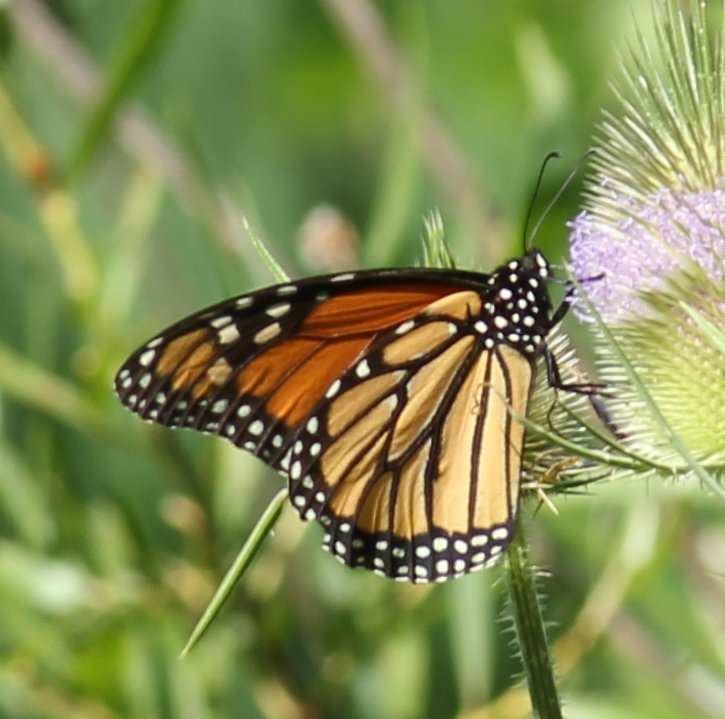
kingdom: Animalia
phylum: Arthropoda
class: Insecta
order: Lepidoptera
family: Nymphalidae
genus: Danaus
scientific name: Danaus plexippus
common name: Monarch
